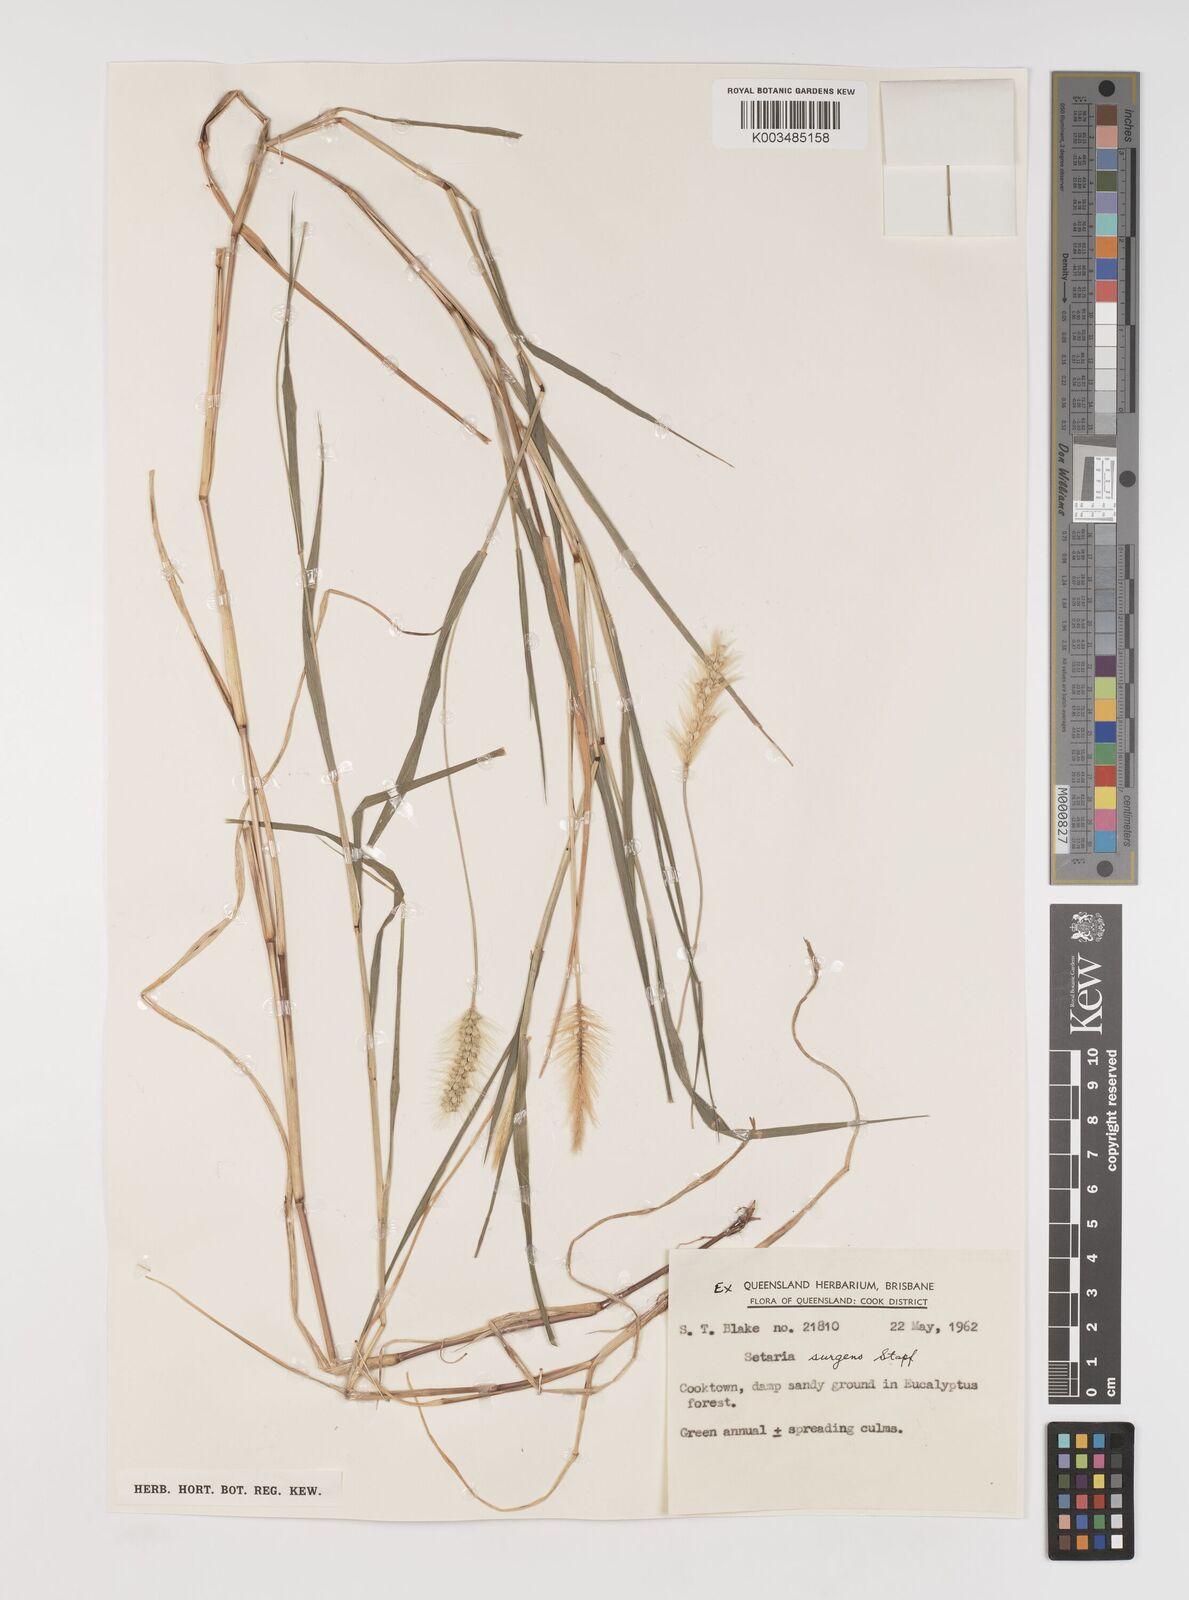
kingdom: Plantae
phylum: Tracheophyta
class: Liliopsida
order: Poales
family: Poaceae
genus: Setaria
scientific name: Setaria apiculata
